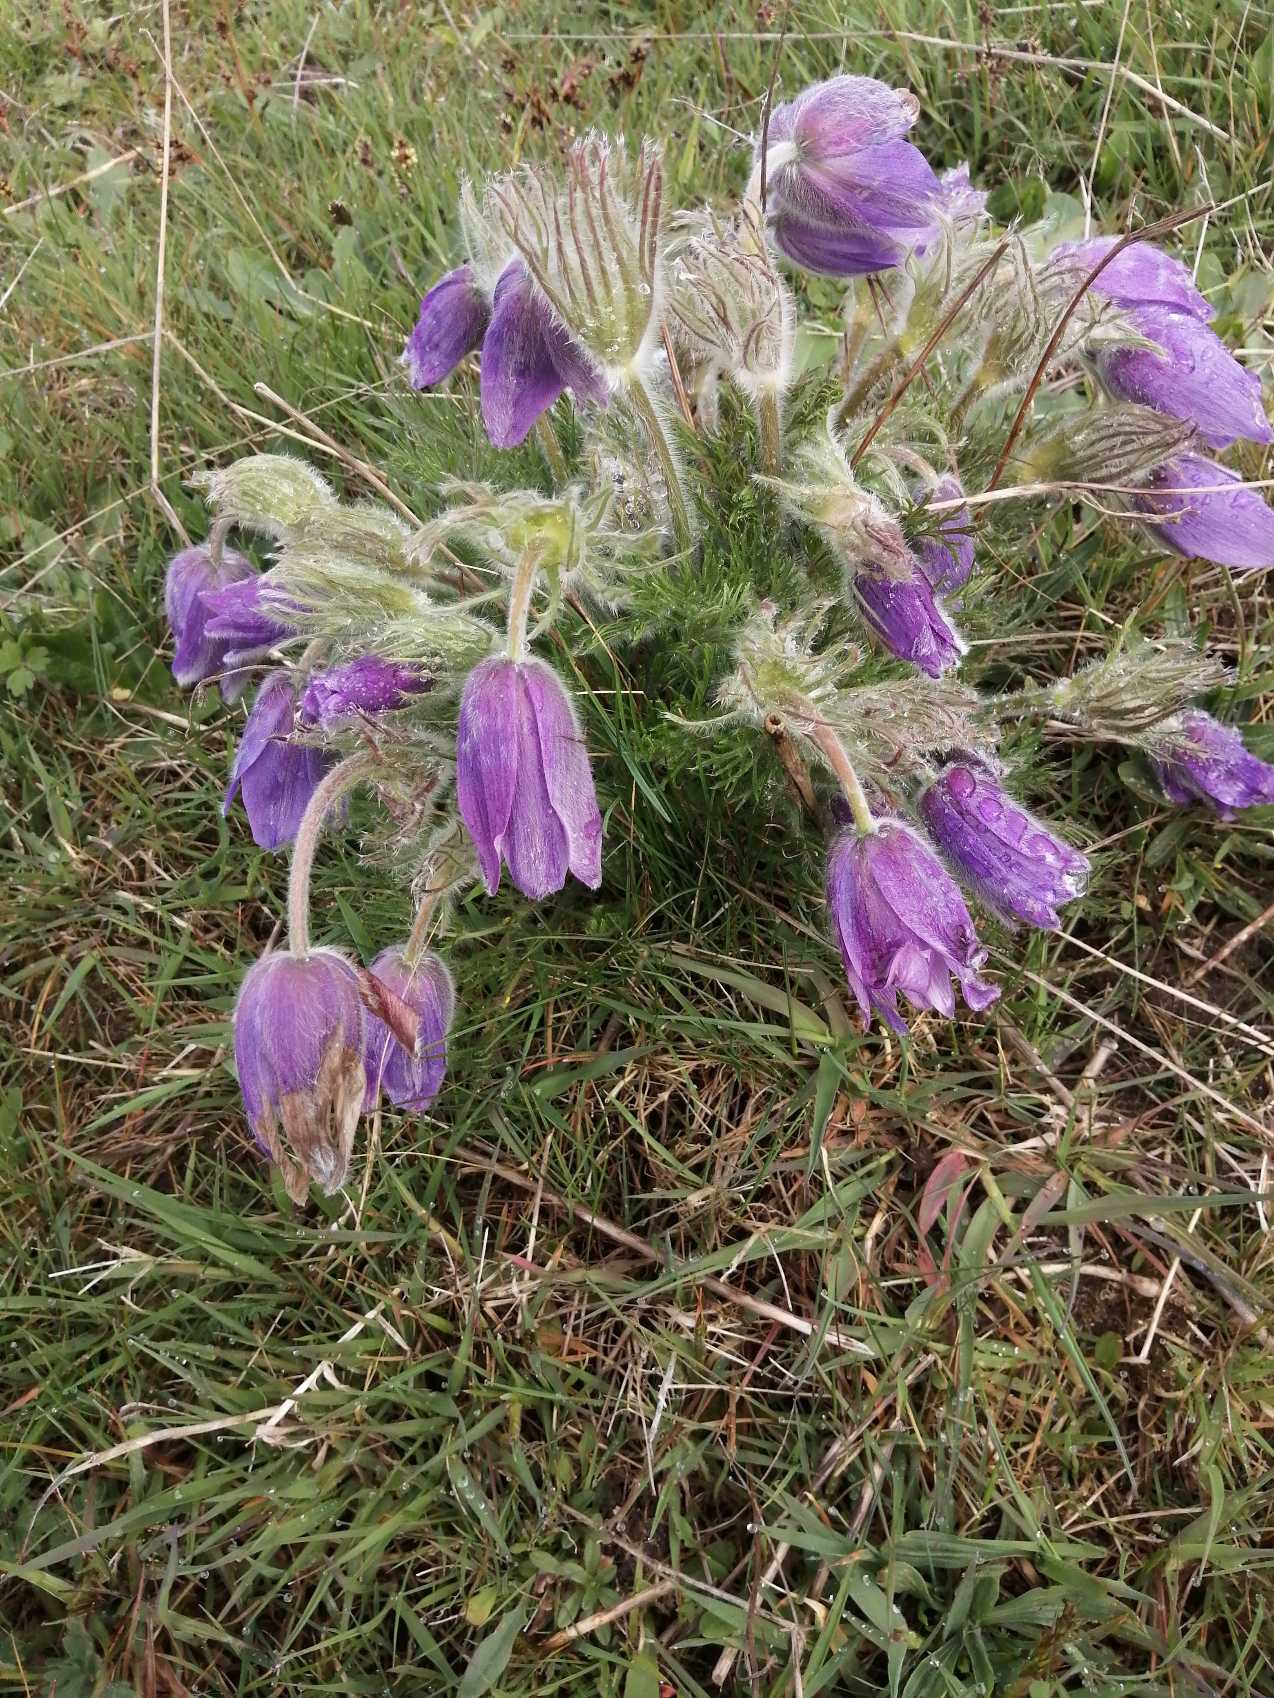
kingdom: Plantae
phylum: Tracheophyta
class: Magnoliopsida
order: Ranunculales
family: Ranunculaceae
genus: Pulsatilla
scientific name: Pulsatilla vulgaris
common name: Opret kobjælde
